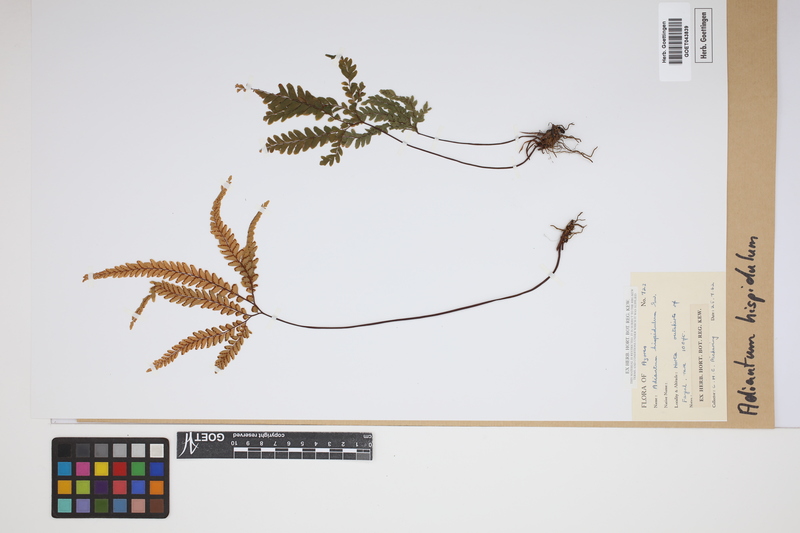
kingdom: Plantae
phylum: Tracheophyta
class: Polypodiopsida
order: Polypodiales
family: Pteridaceae
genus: Adiantum
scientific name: Adiantum hispidulum
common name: Rough maidenhair
